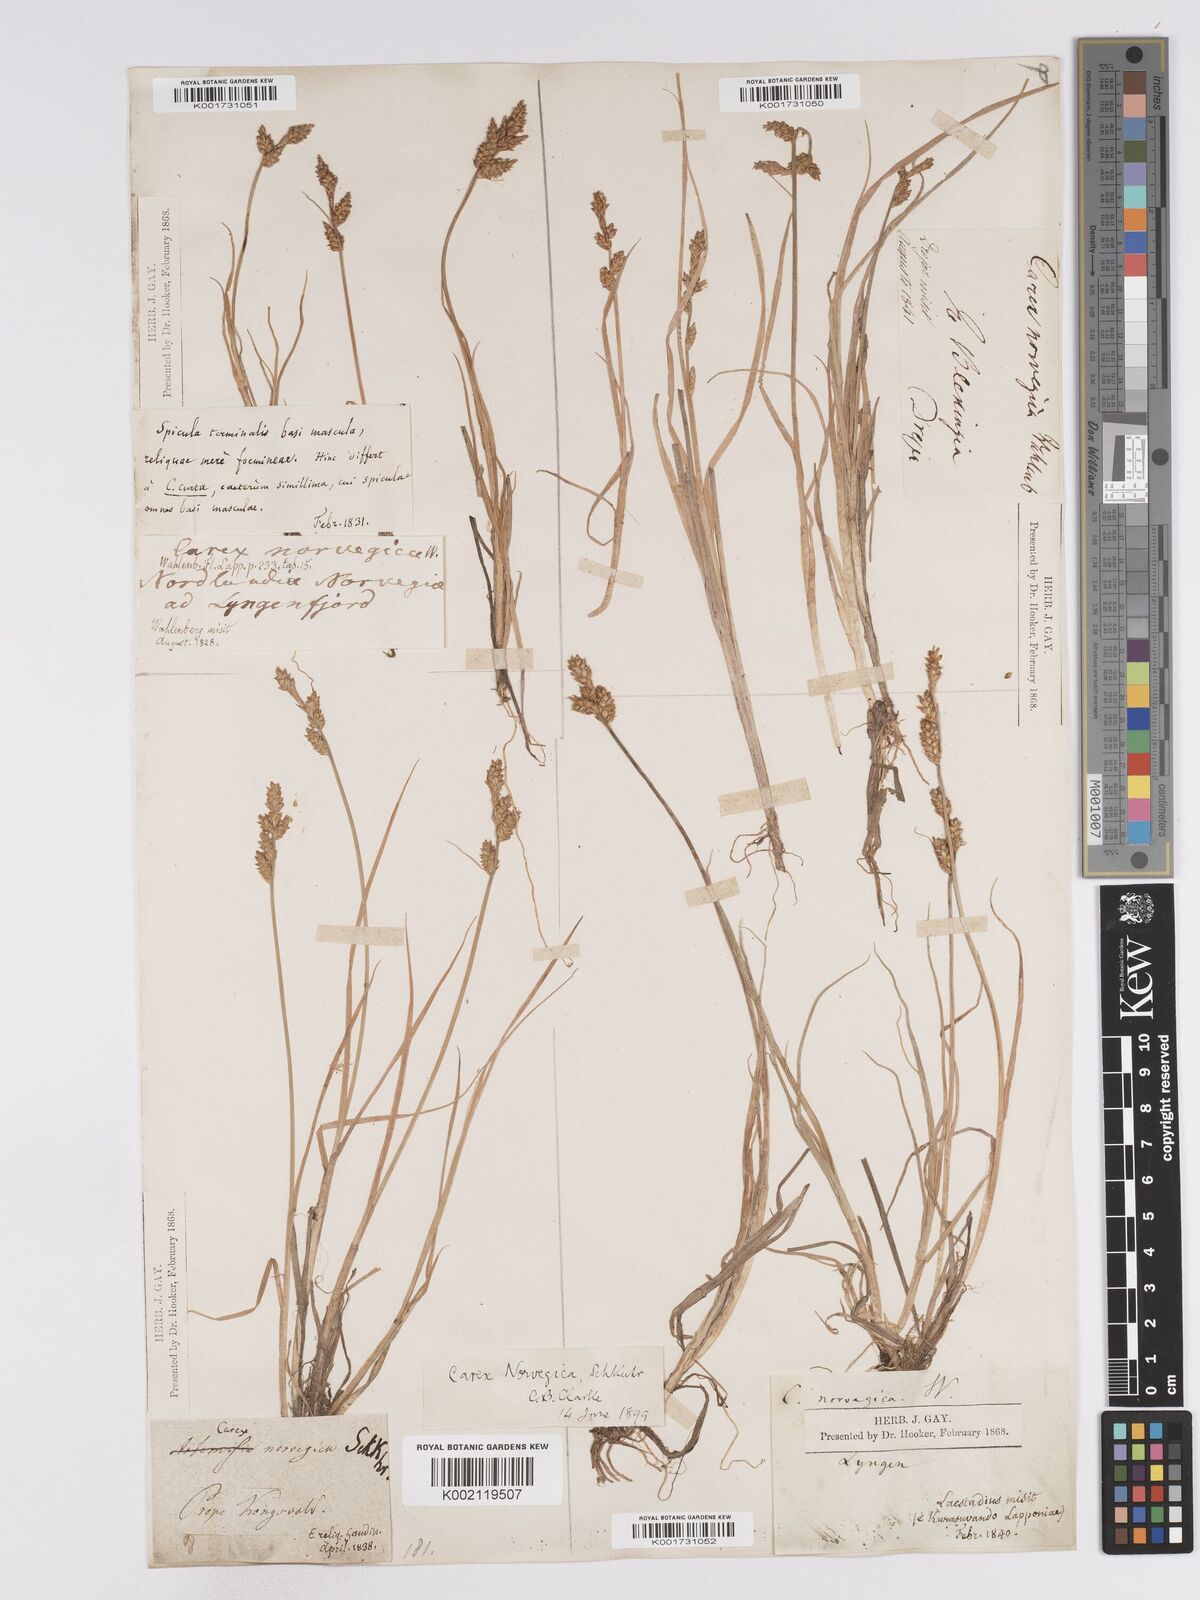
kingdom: Plantae
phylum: Tracheophyta
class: Liliopsida
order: Poales
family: Cyperaceae
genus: Carex
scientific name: Carex mackenziei
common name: Mackenzie's sedge
